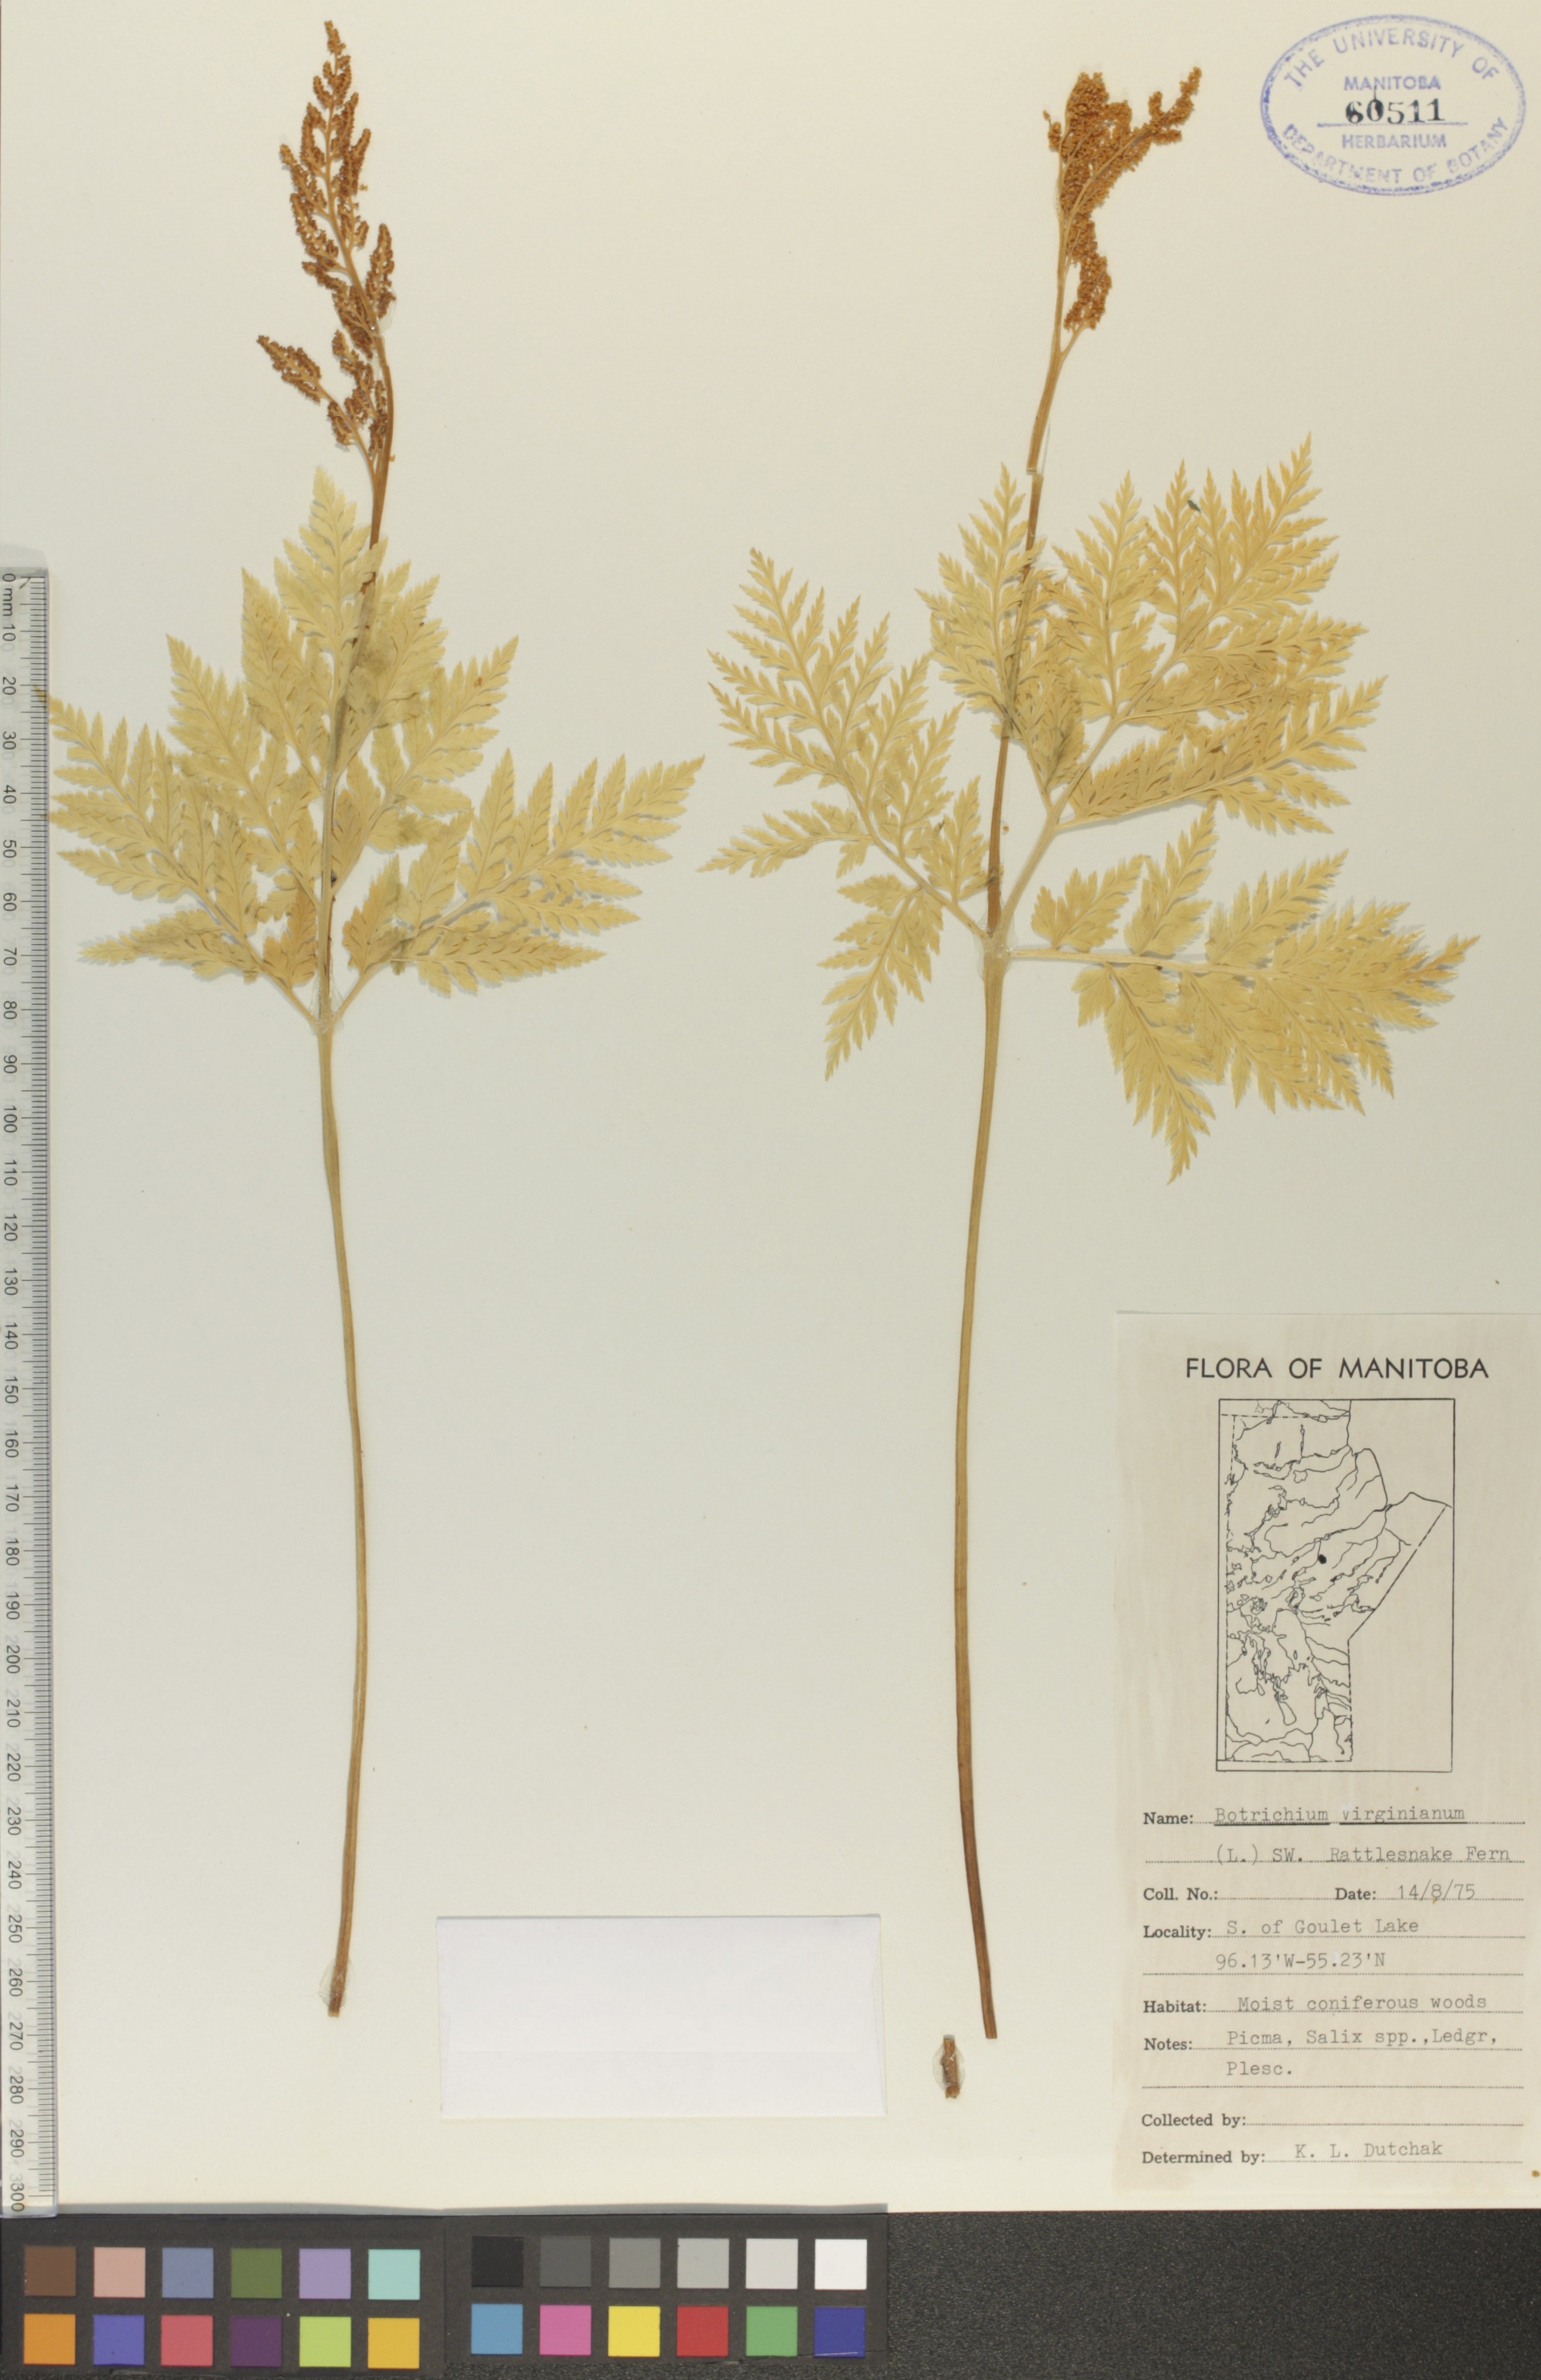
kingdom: Plantae
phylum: Tracheophyta
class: Polypodiopsida
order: Ophioglossales
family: Ophioglossaceae
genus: Botrypus
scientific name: Botrypus virginianus
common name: Common grapefern
